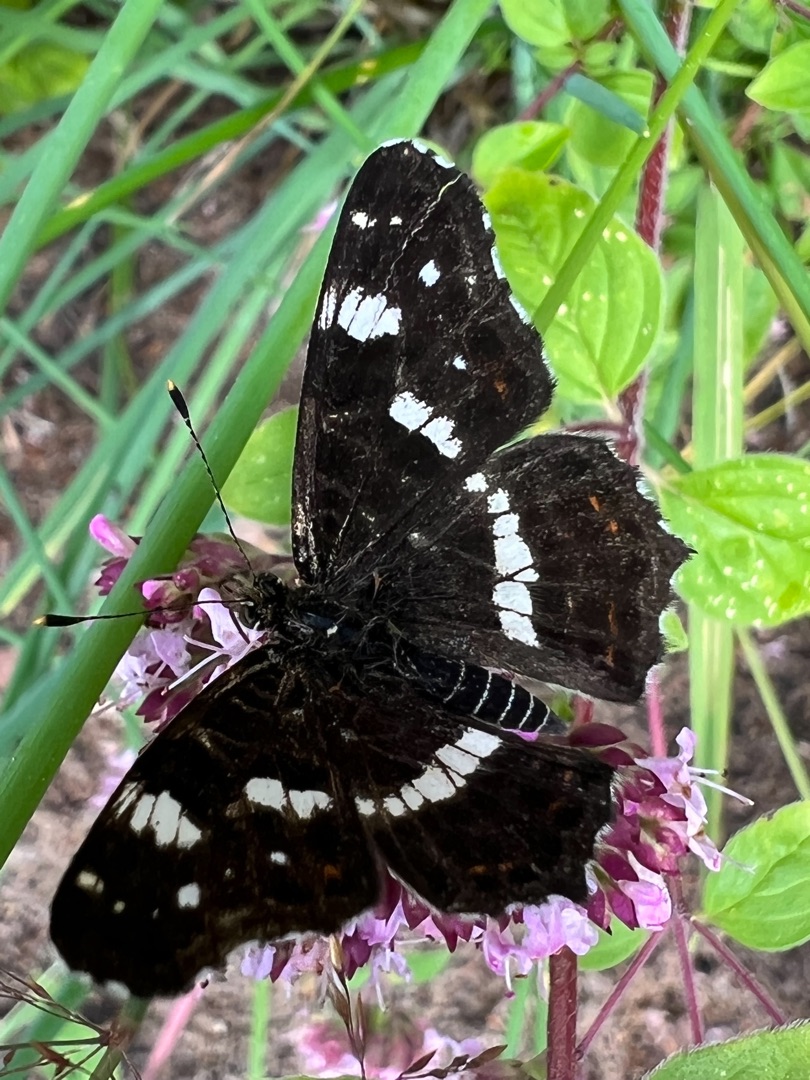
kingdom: Animalia
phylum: Arthropoda
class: Insecta
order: Lepidoptera
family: Nymphalidae
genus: Araschnia
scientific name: Araschnia levana
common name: Nældesommerfugl
